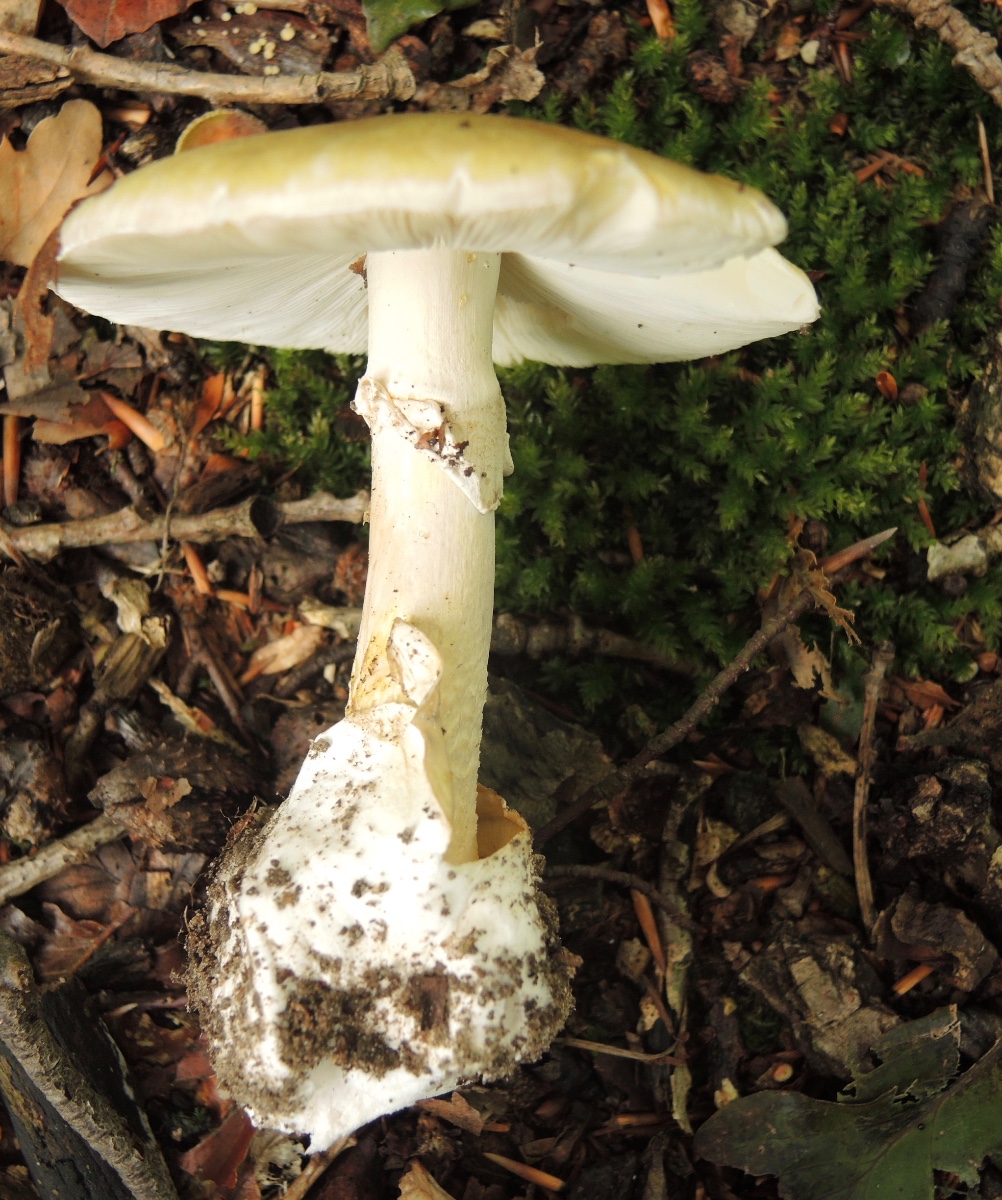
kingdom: Fungi
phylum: Basidiomycota
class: Agaricomycetes
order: Agaricales
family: Amanitaceae
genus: Amanita
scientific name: Amanita phalloides
